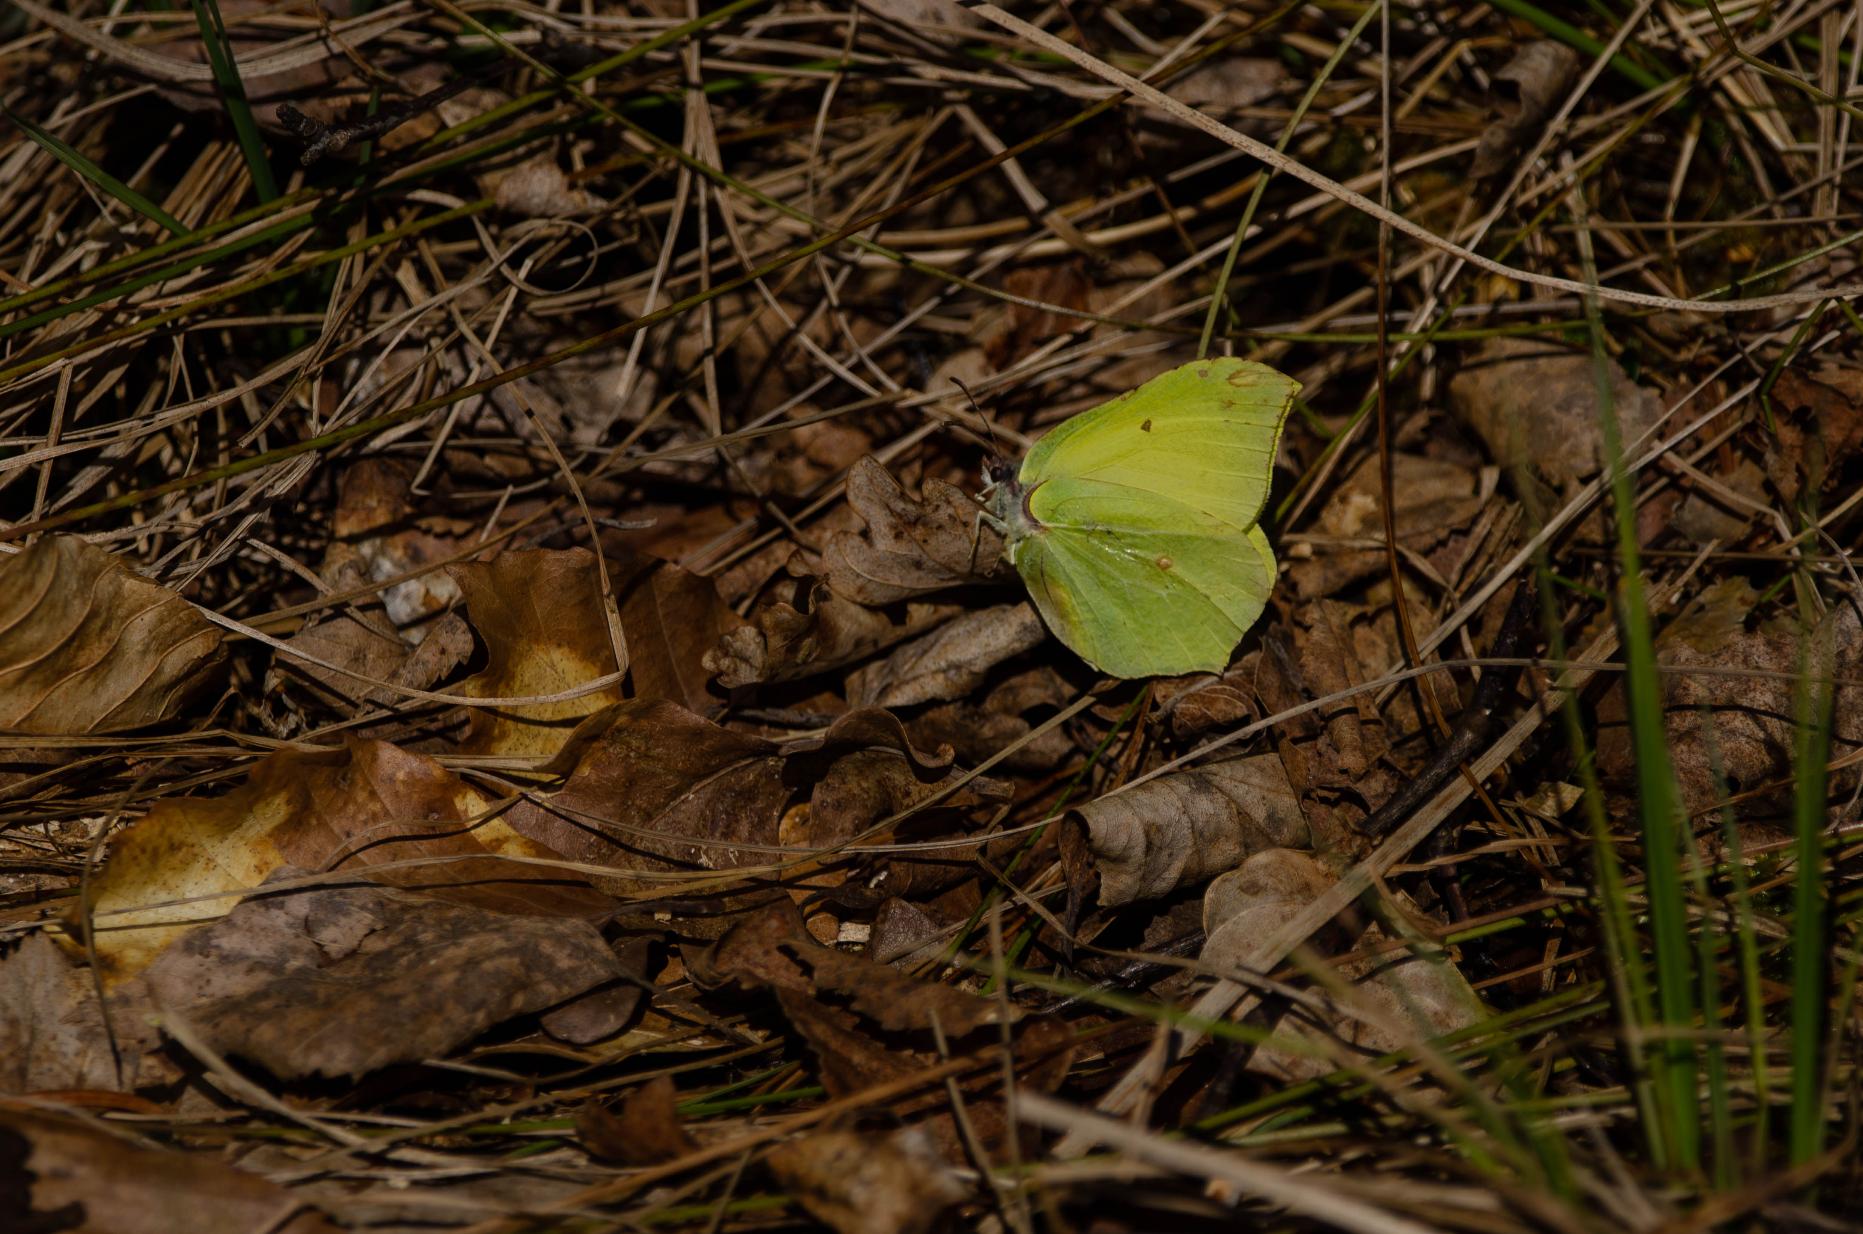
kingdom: Animalia
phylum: Arthropoda
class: Insecta
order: Lepidoptera
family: Pieridae
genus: Gonepteryx
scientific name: Gonepteryx rhamni
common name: Citronsommerfugl
